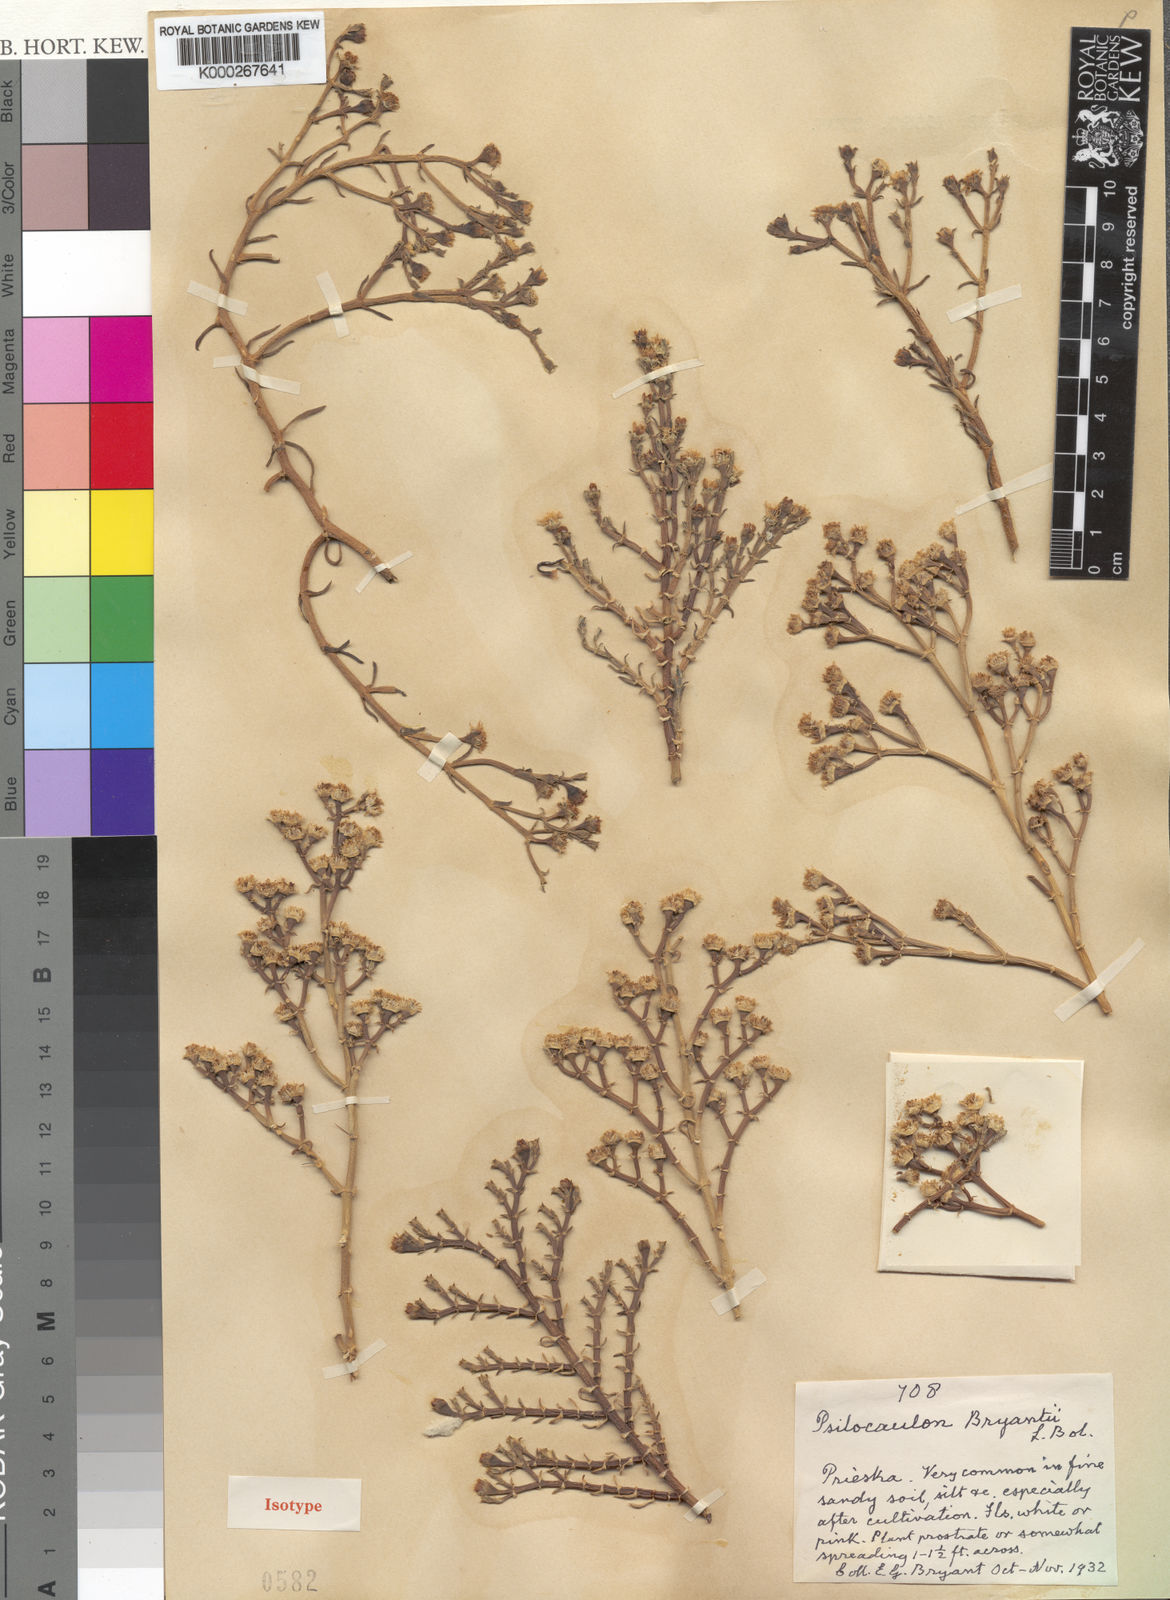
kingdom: Plantae
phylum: Tracheophyta
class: Magnoliopsida
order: Caryophyllales
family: Aizoaceae
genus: Mesembryanthemum
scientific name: Mesembryanthemum articulatum
